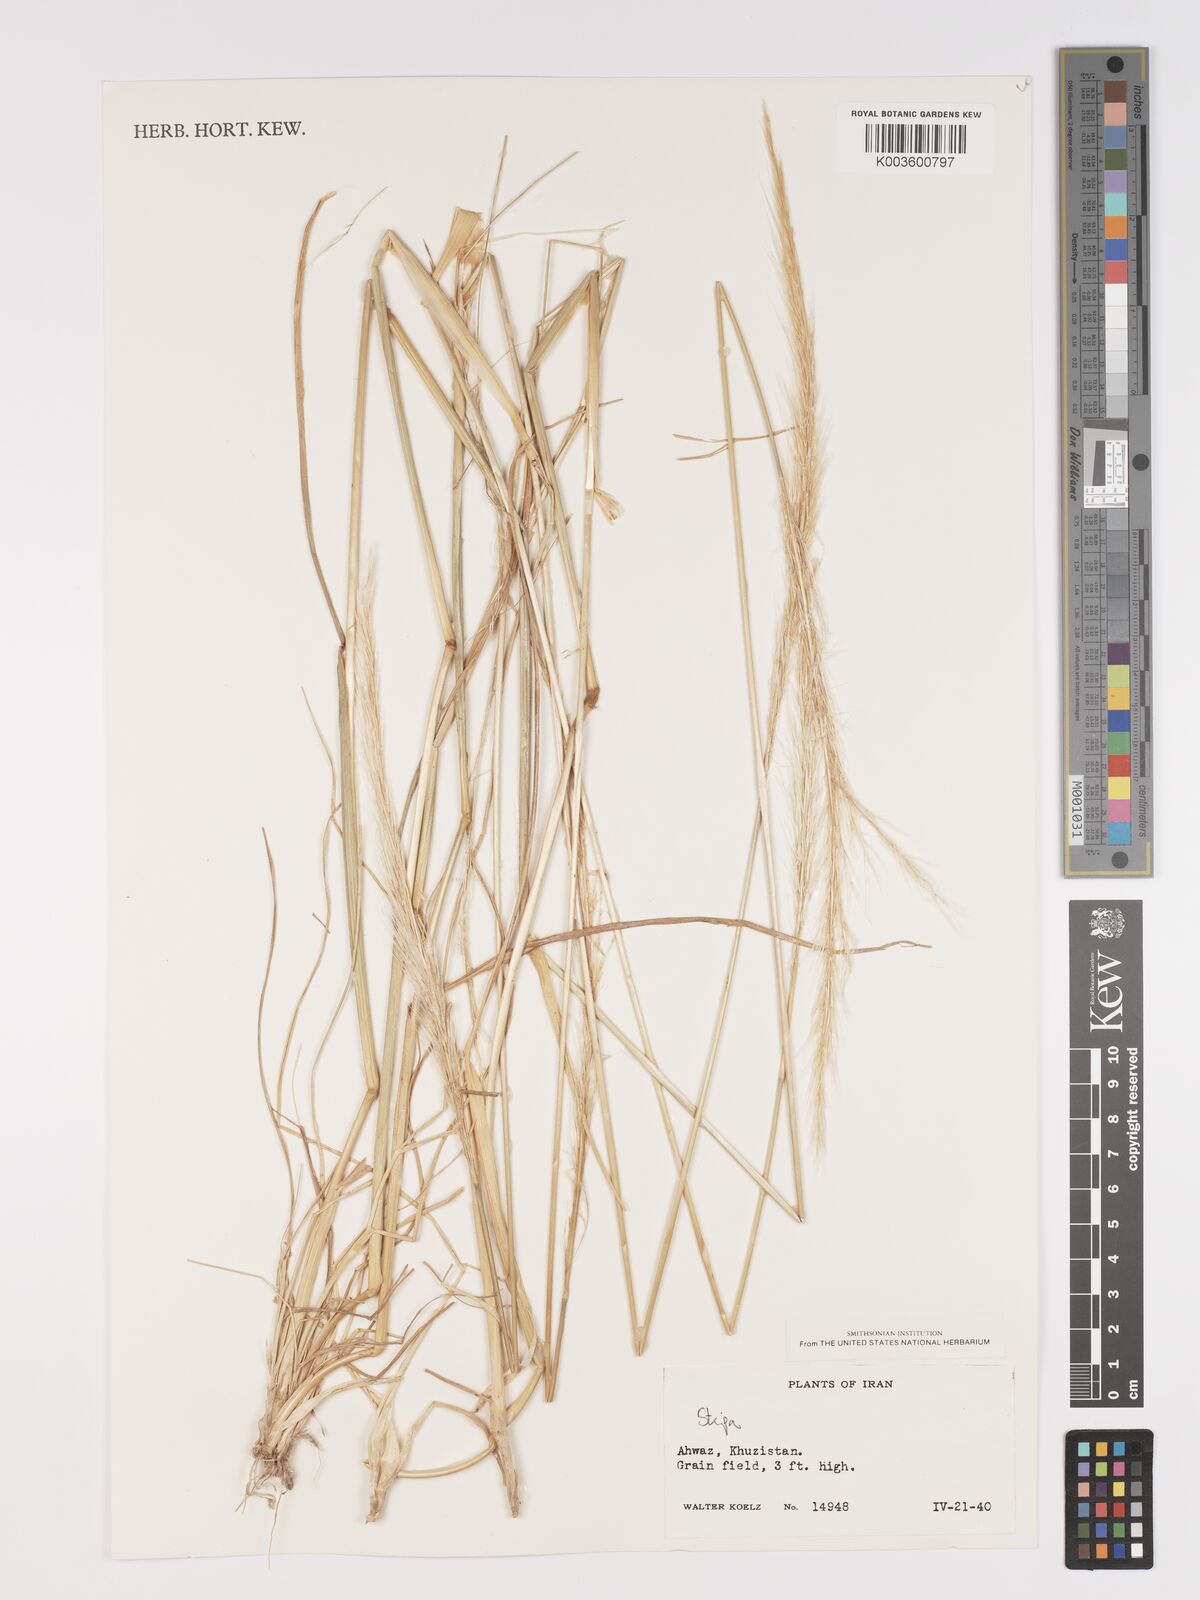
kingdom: Plantae
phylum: Tracheophyta
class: Liliopsida
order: Poales
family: Poaceae
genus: Stipa
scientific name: Stipa
